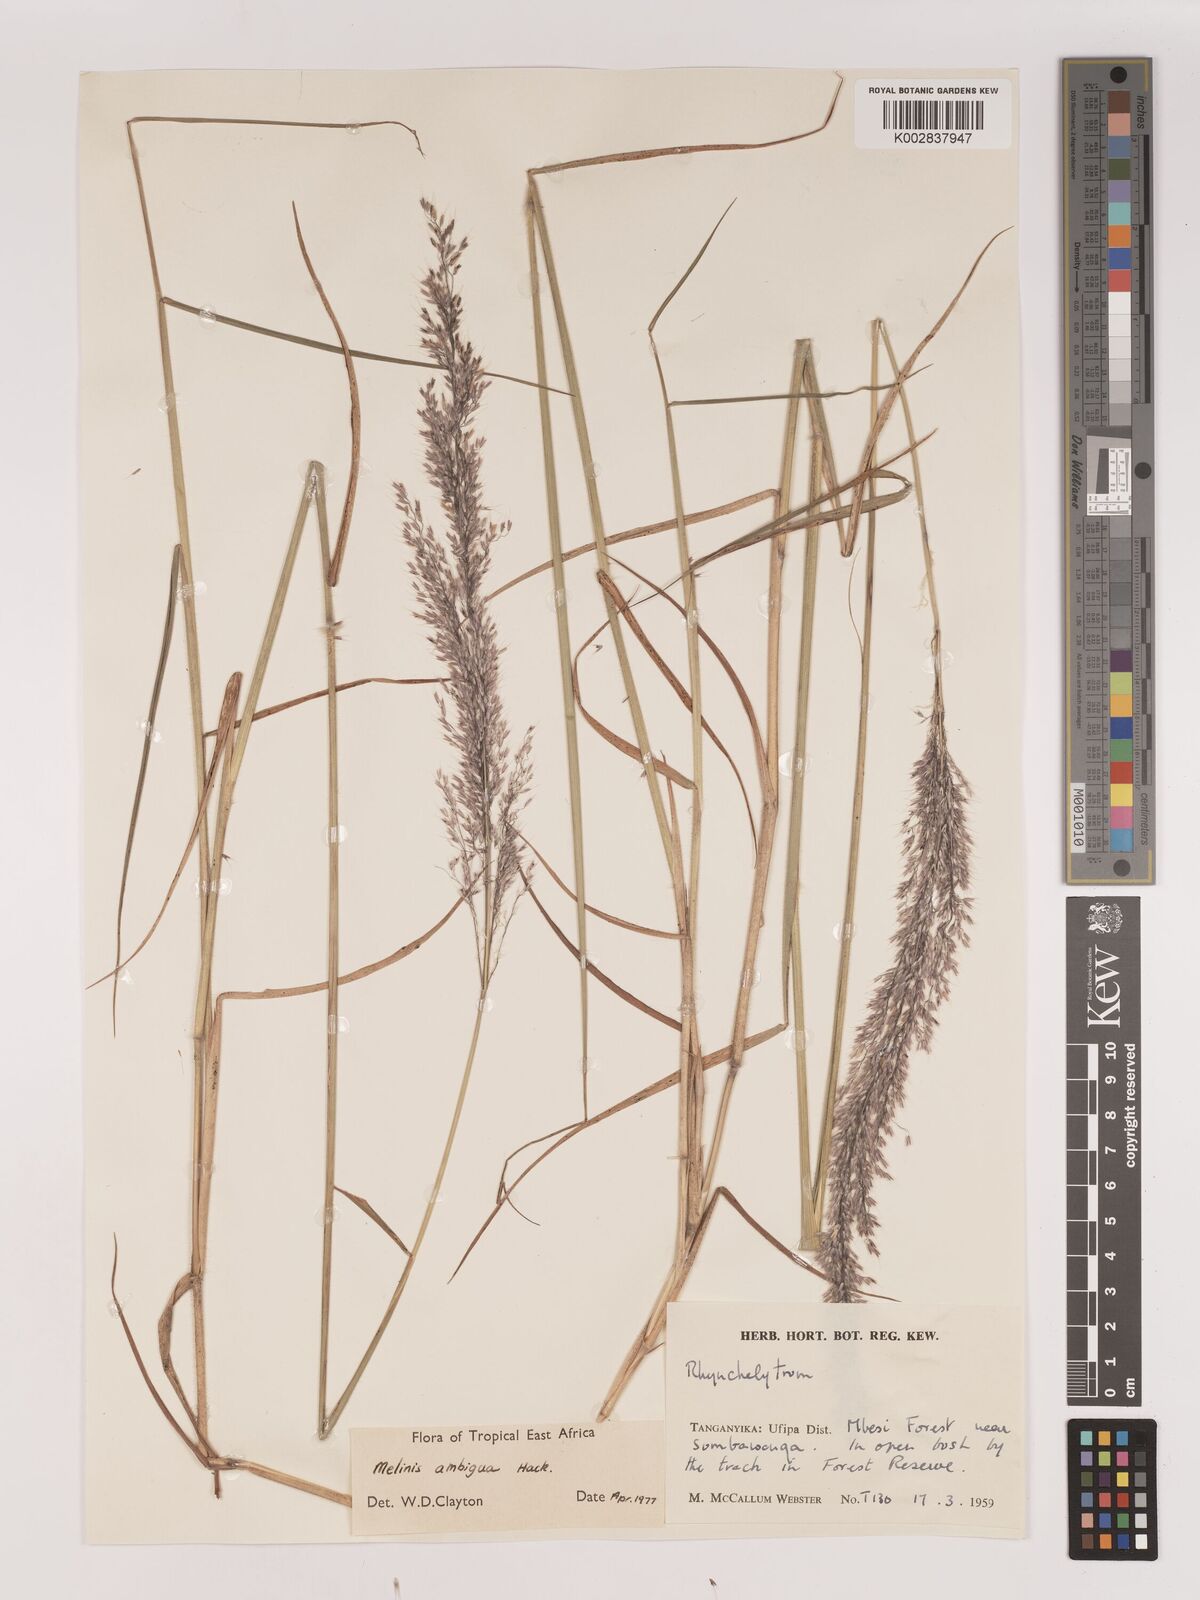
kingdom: Plantae
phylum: Tracheophyta
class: Liliopsida
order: Poales
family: Poaceae
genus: Melinis
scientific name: Melinis ambigua
